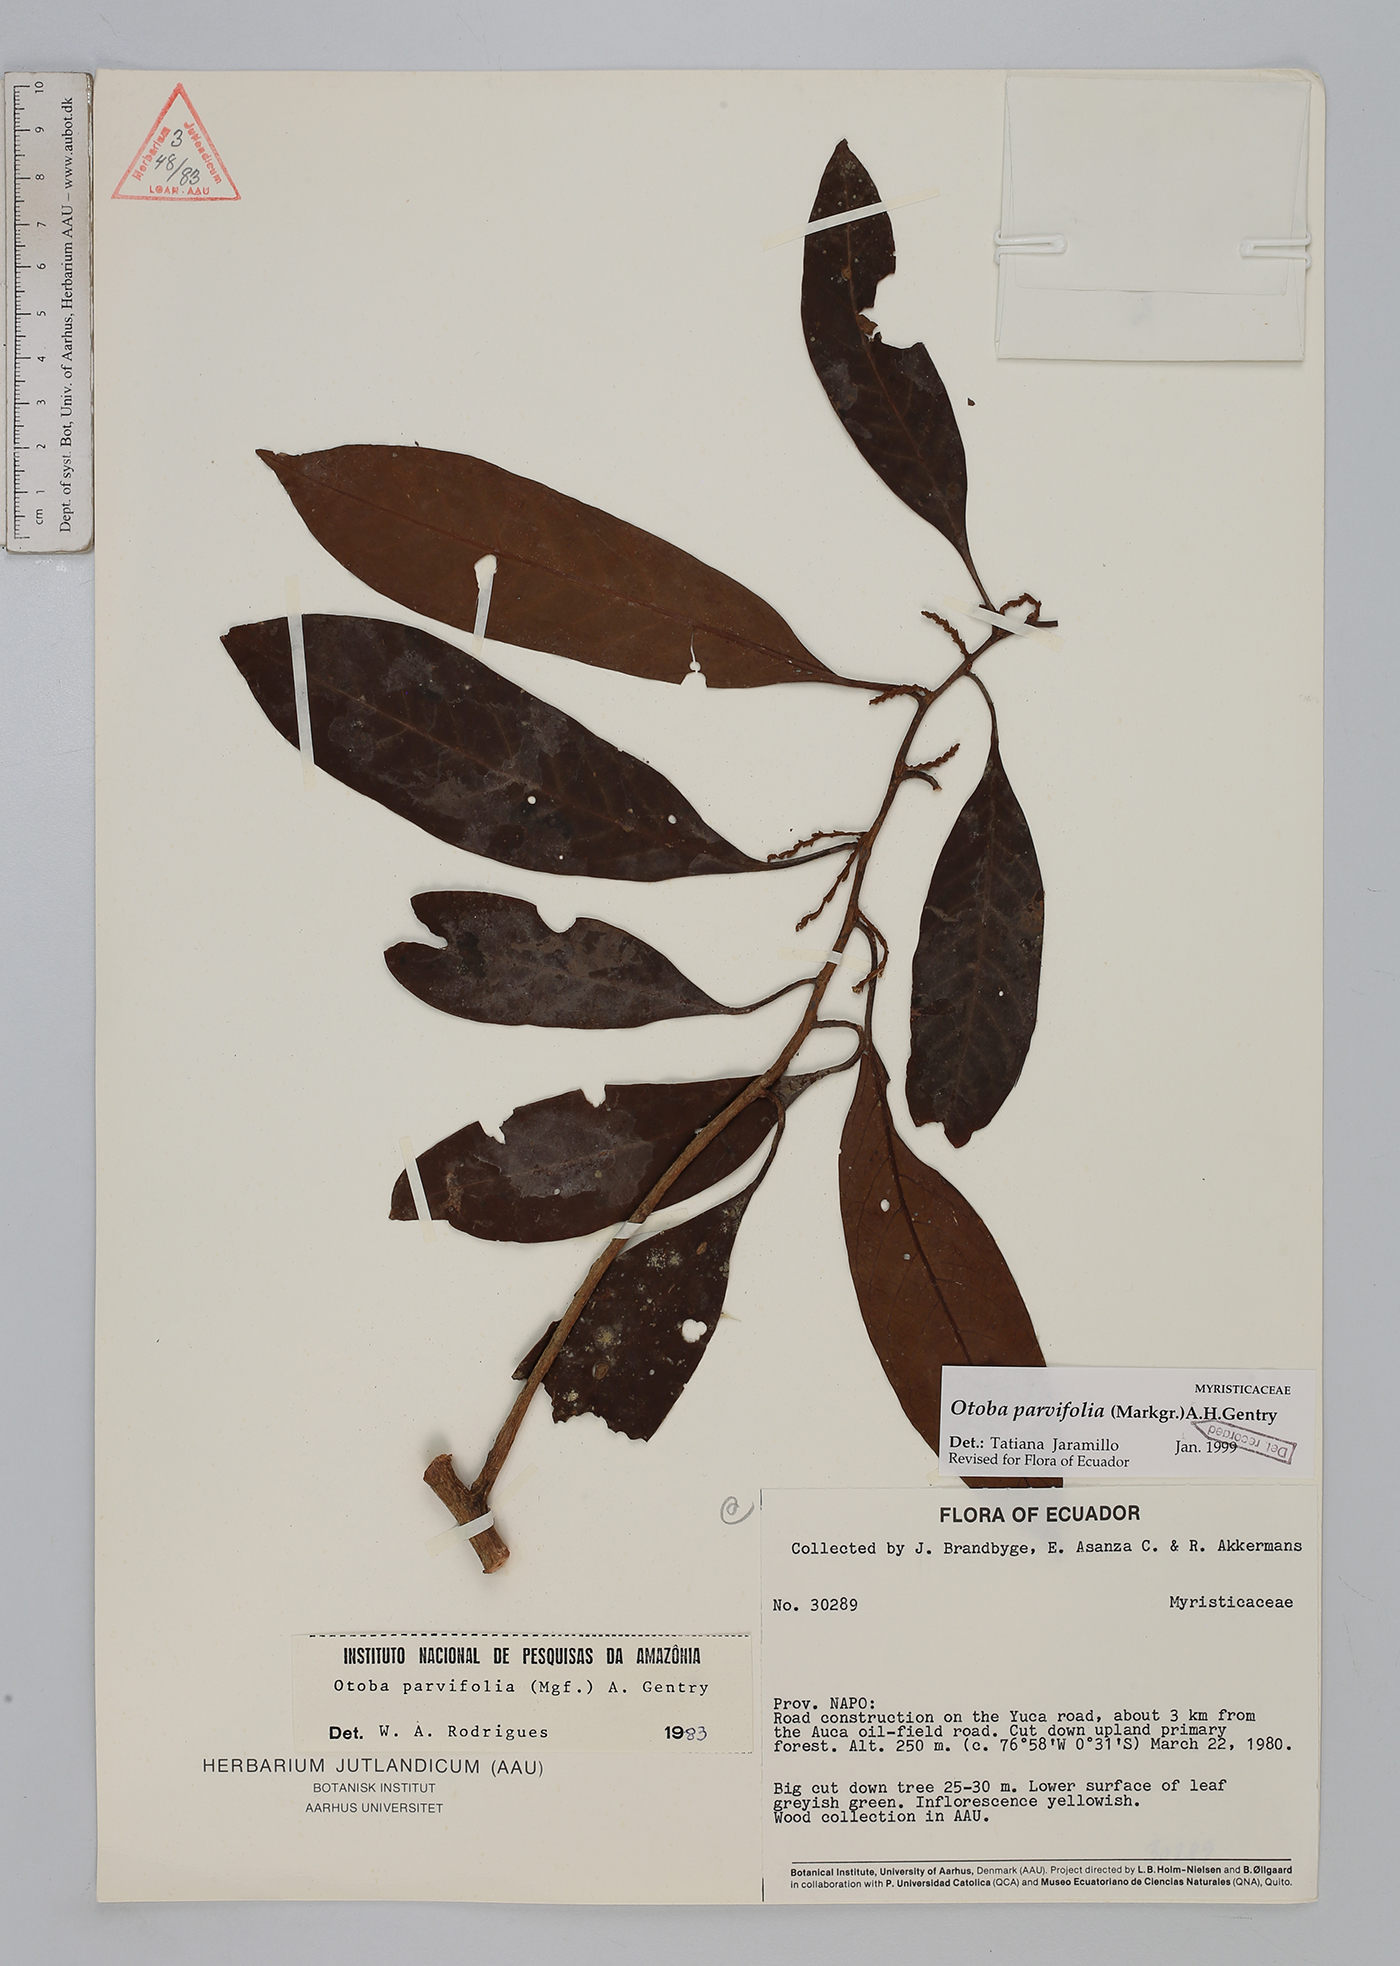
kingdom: Plantae
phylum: Tracheophyta
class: Magnoliopsida
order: Magnoliales
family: Myristicaceae
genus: Otoba
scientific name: Otoba parvifolia
